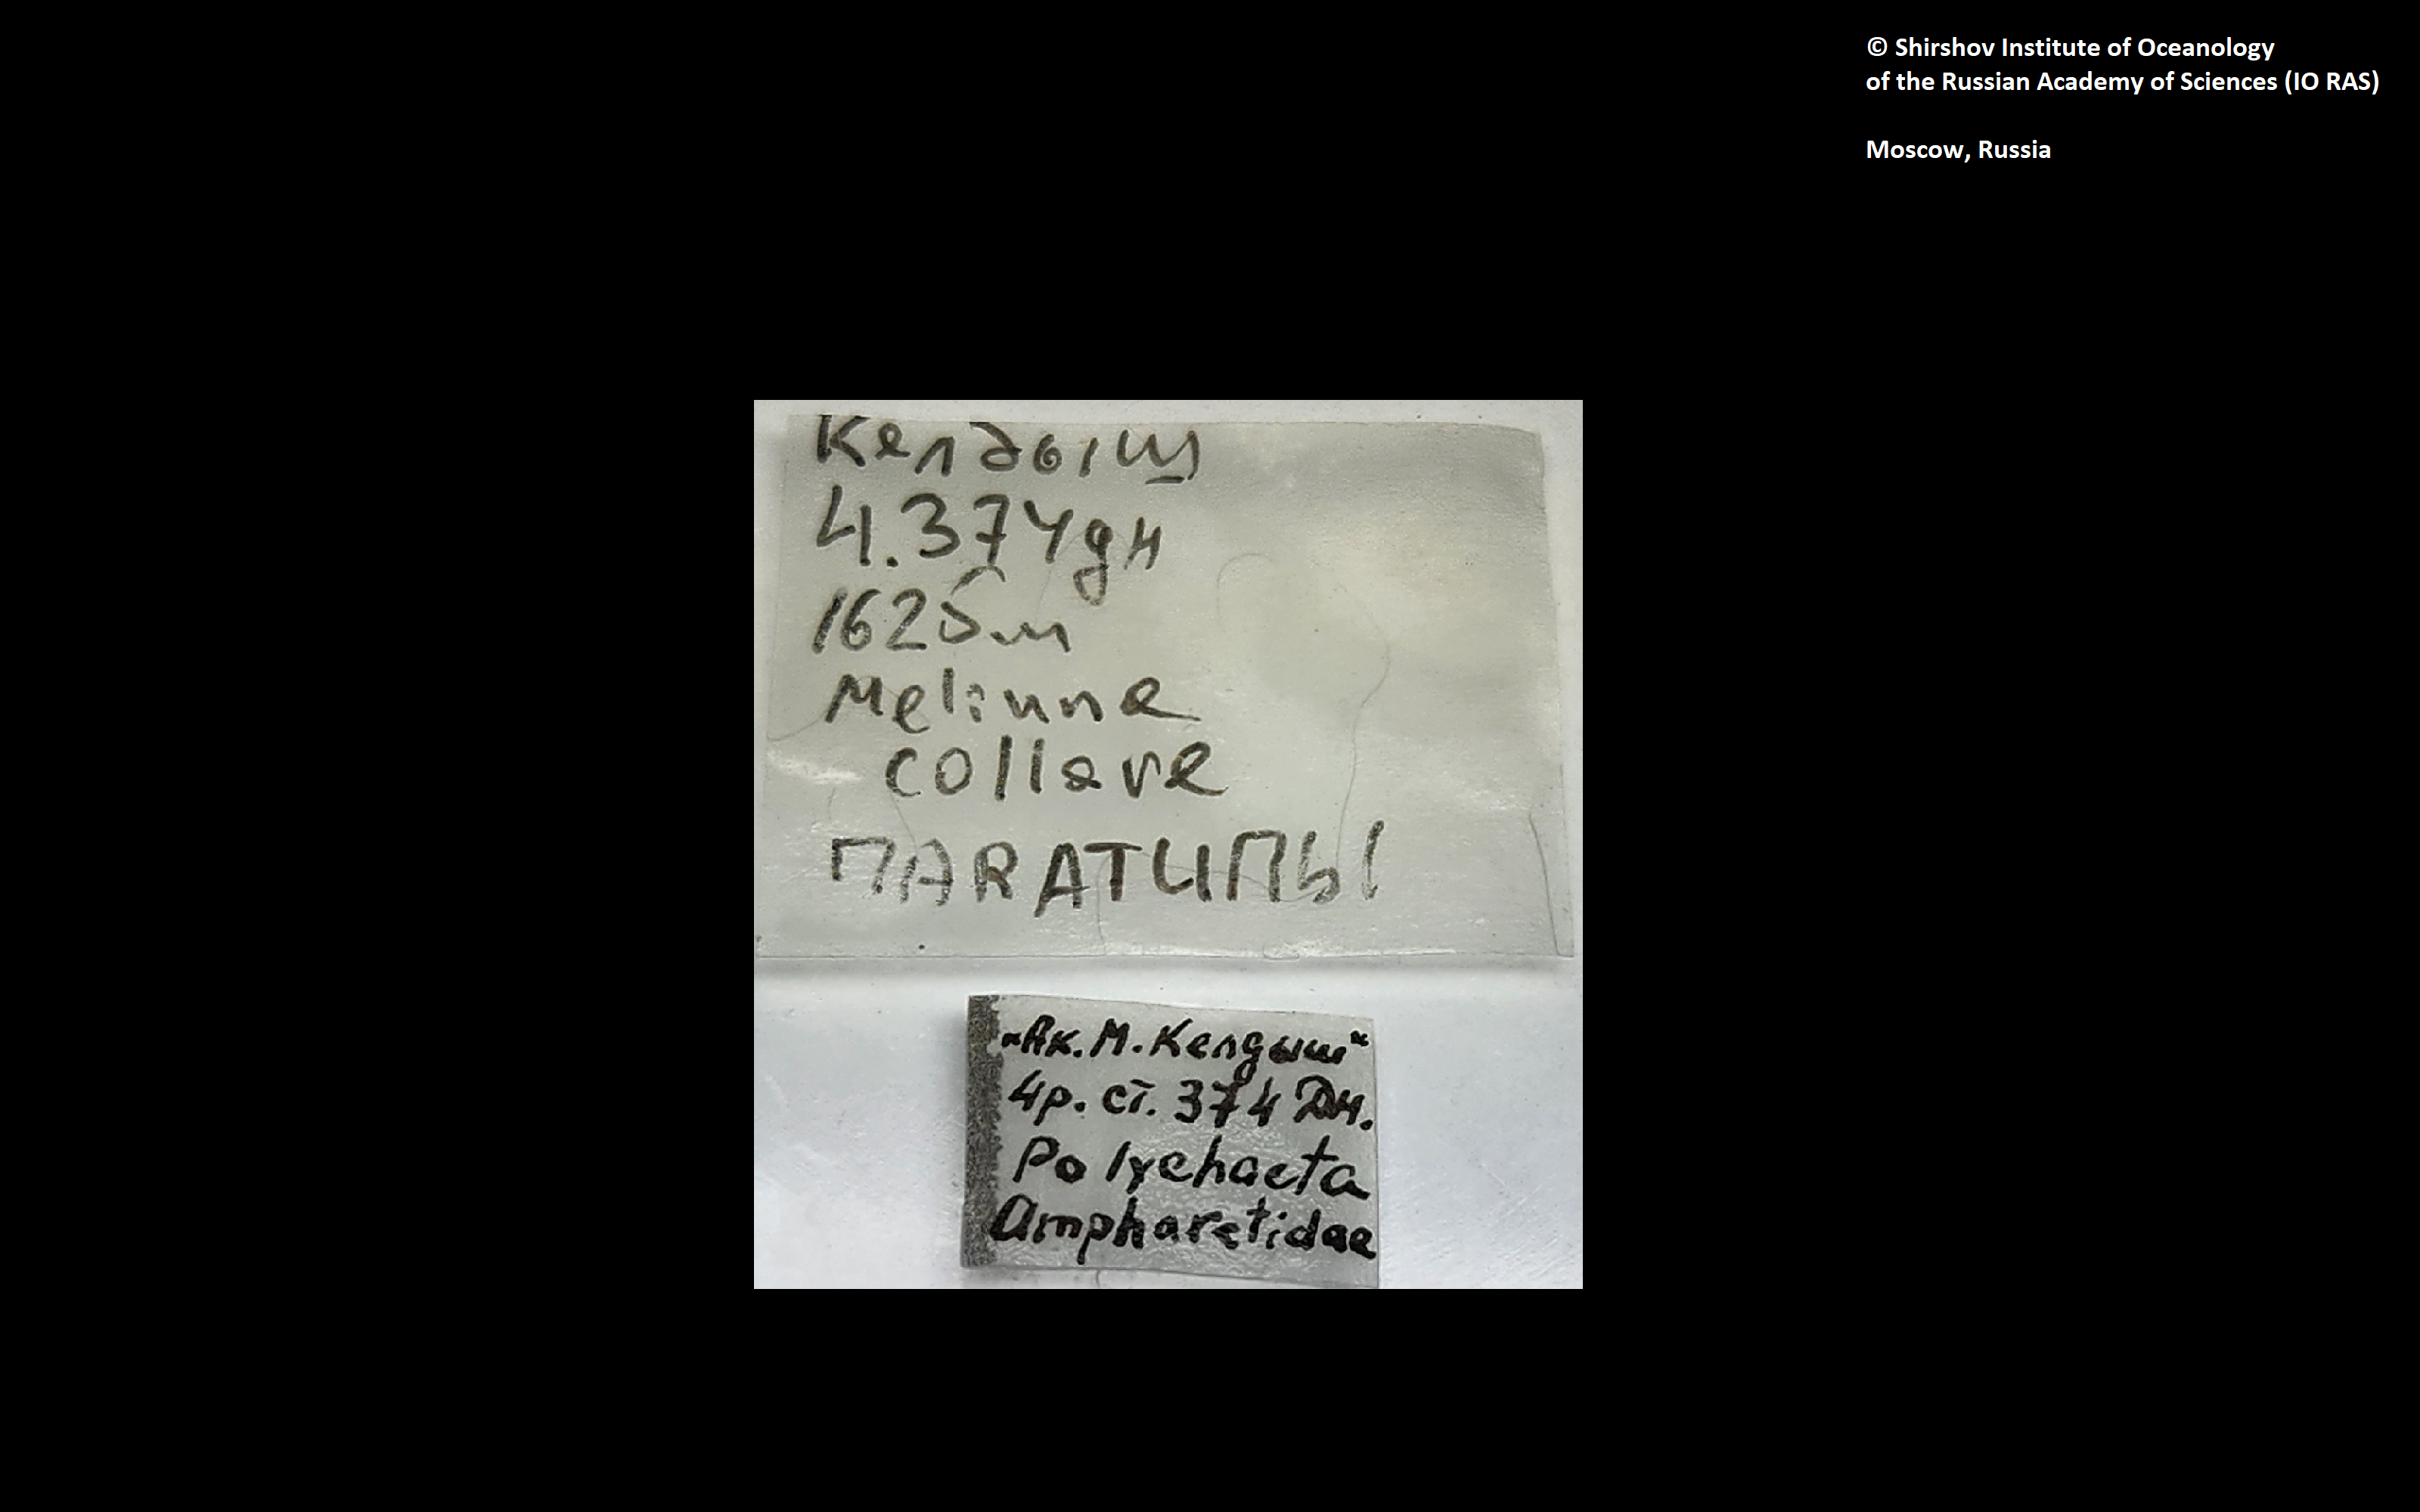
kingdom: Animalia
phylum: Annelida
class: Polychaeta
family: Melinnidae
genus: Melinna
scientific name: Melinna collare
